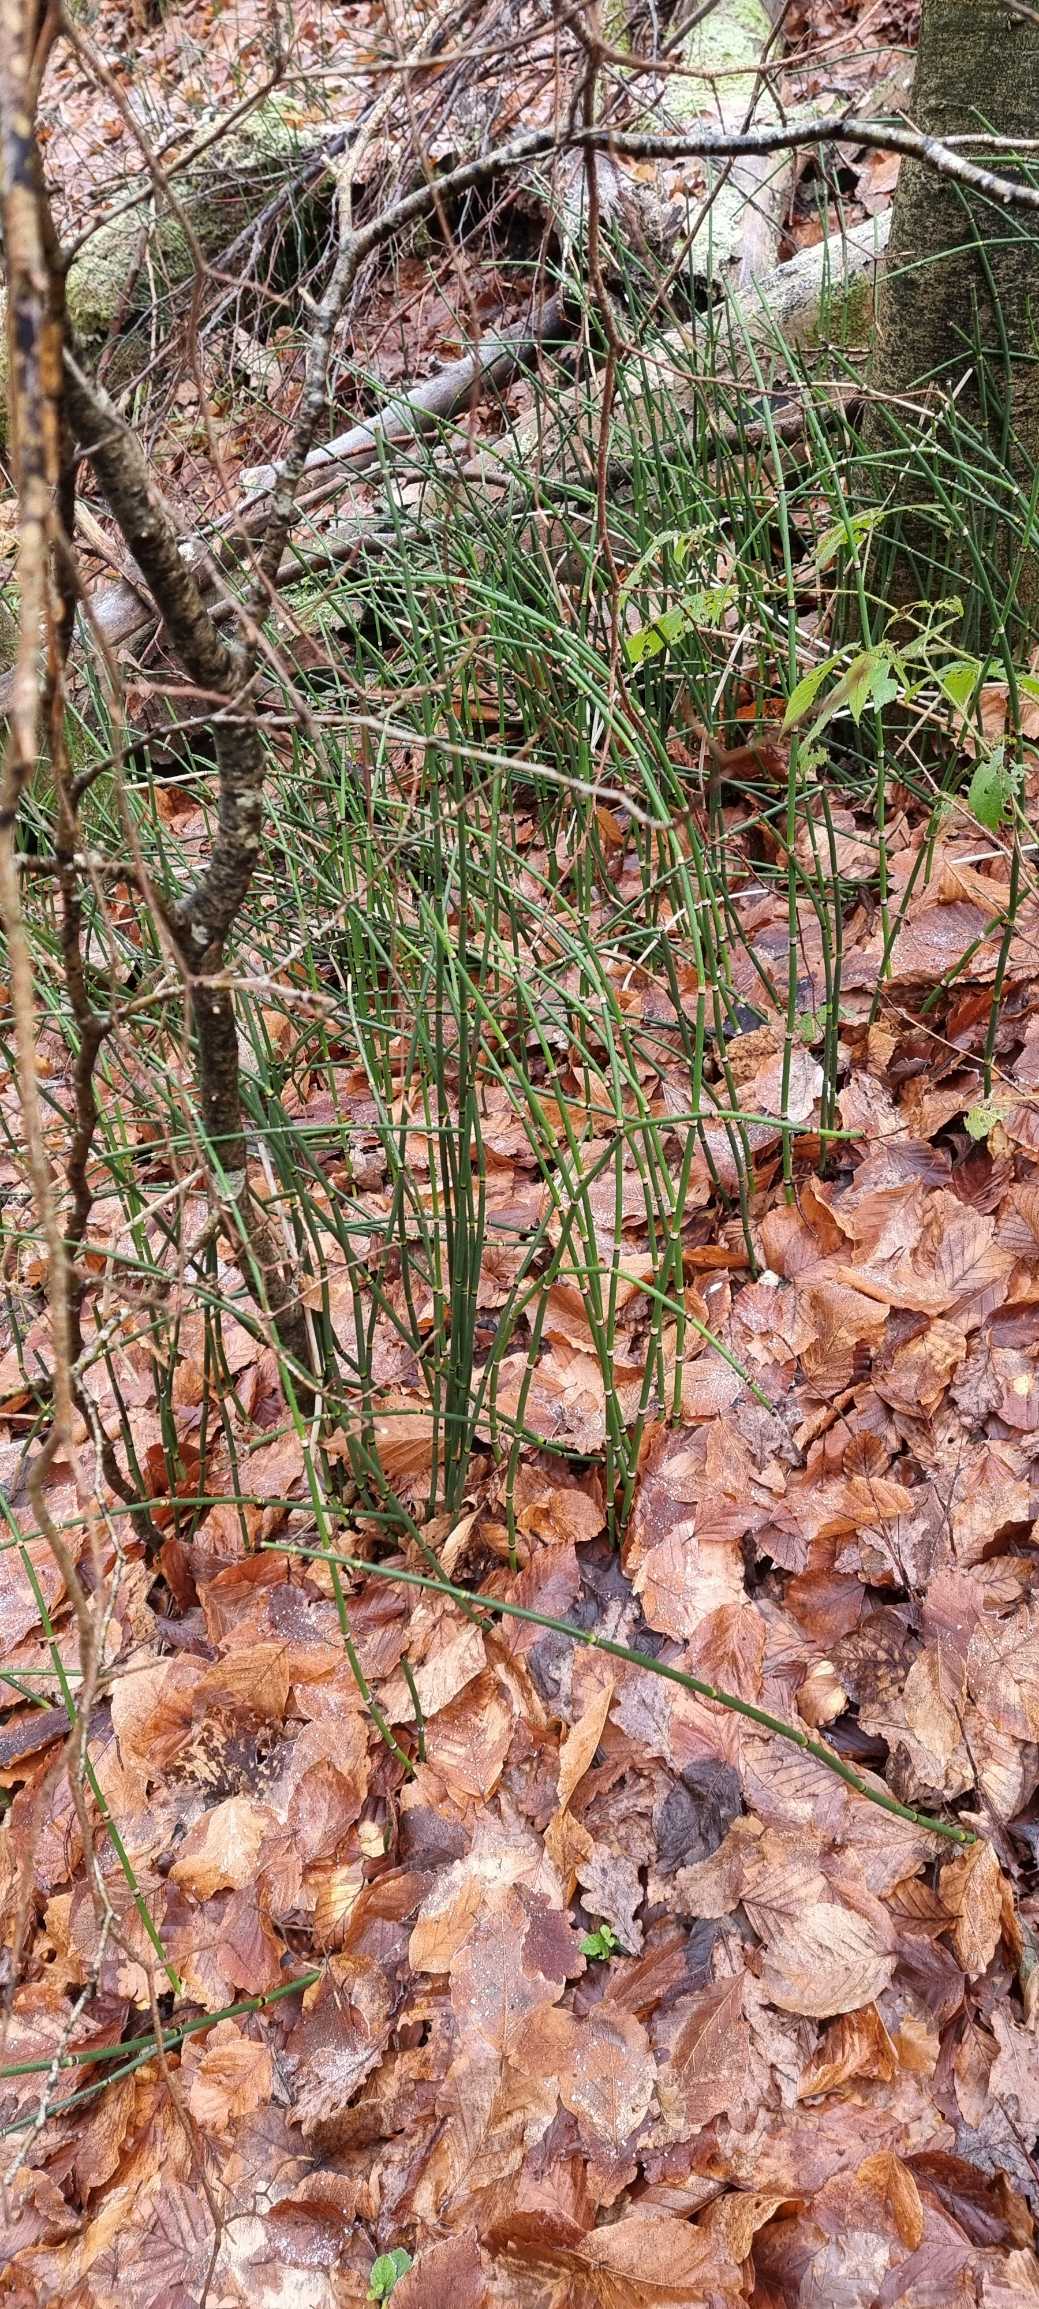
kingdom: Plantae
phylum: Tracheophyta
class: Polypodiopsida
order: Equisetales
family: Equisetaceae
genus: Equisetum
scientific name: Equisetum hyemale
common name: Skavgræs
